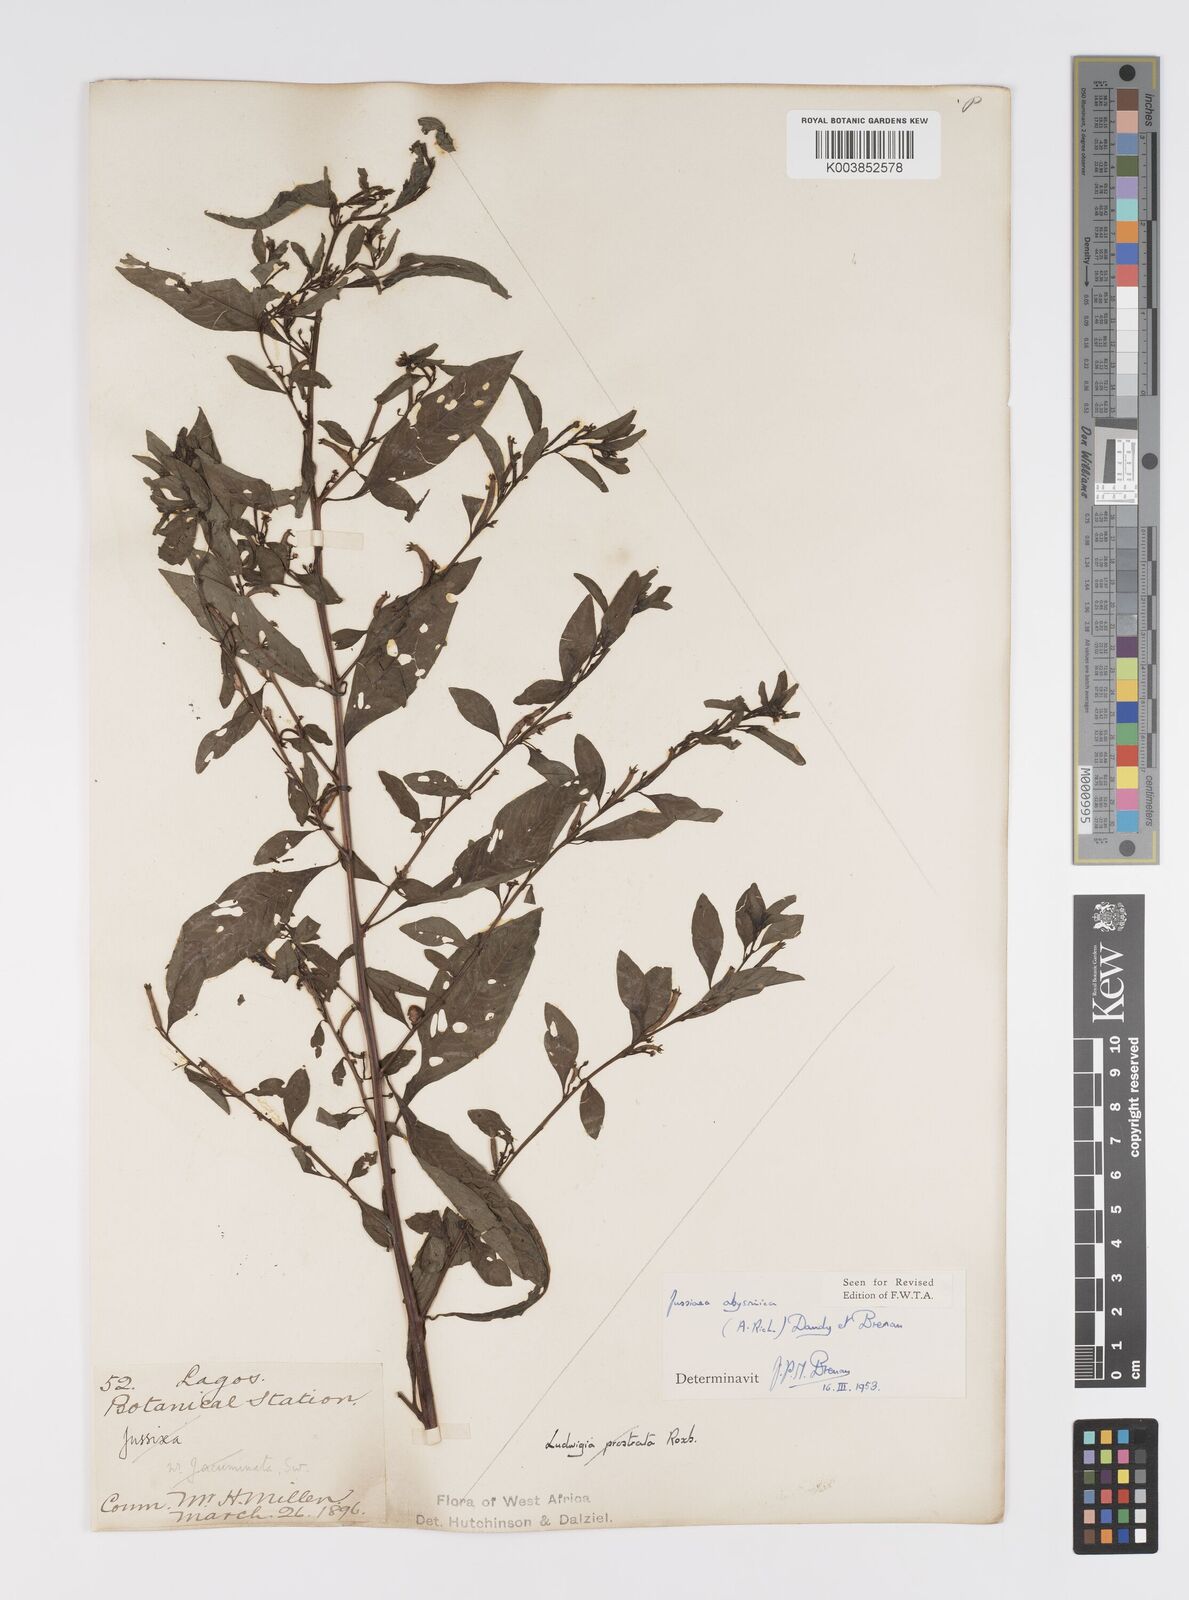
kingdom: Plantae
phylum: Tracheophyta
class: Magnoliopsida
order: Myrtales
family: Onagraceae
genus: Ludwigia
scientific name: Ludwigia abyssinica
